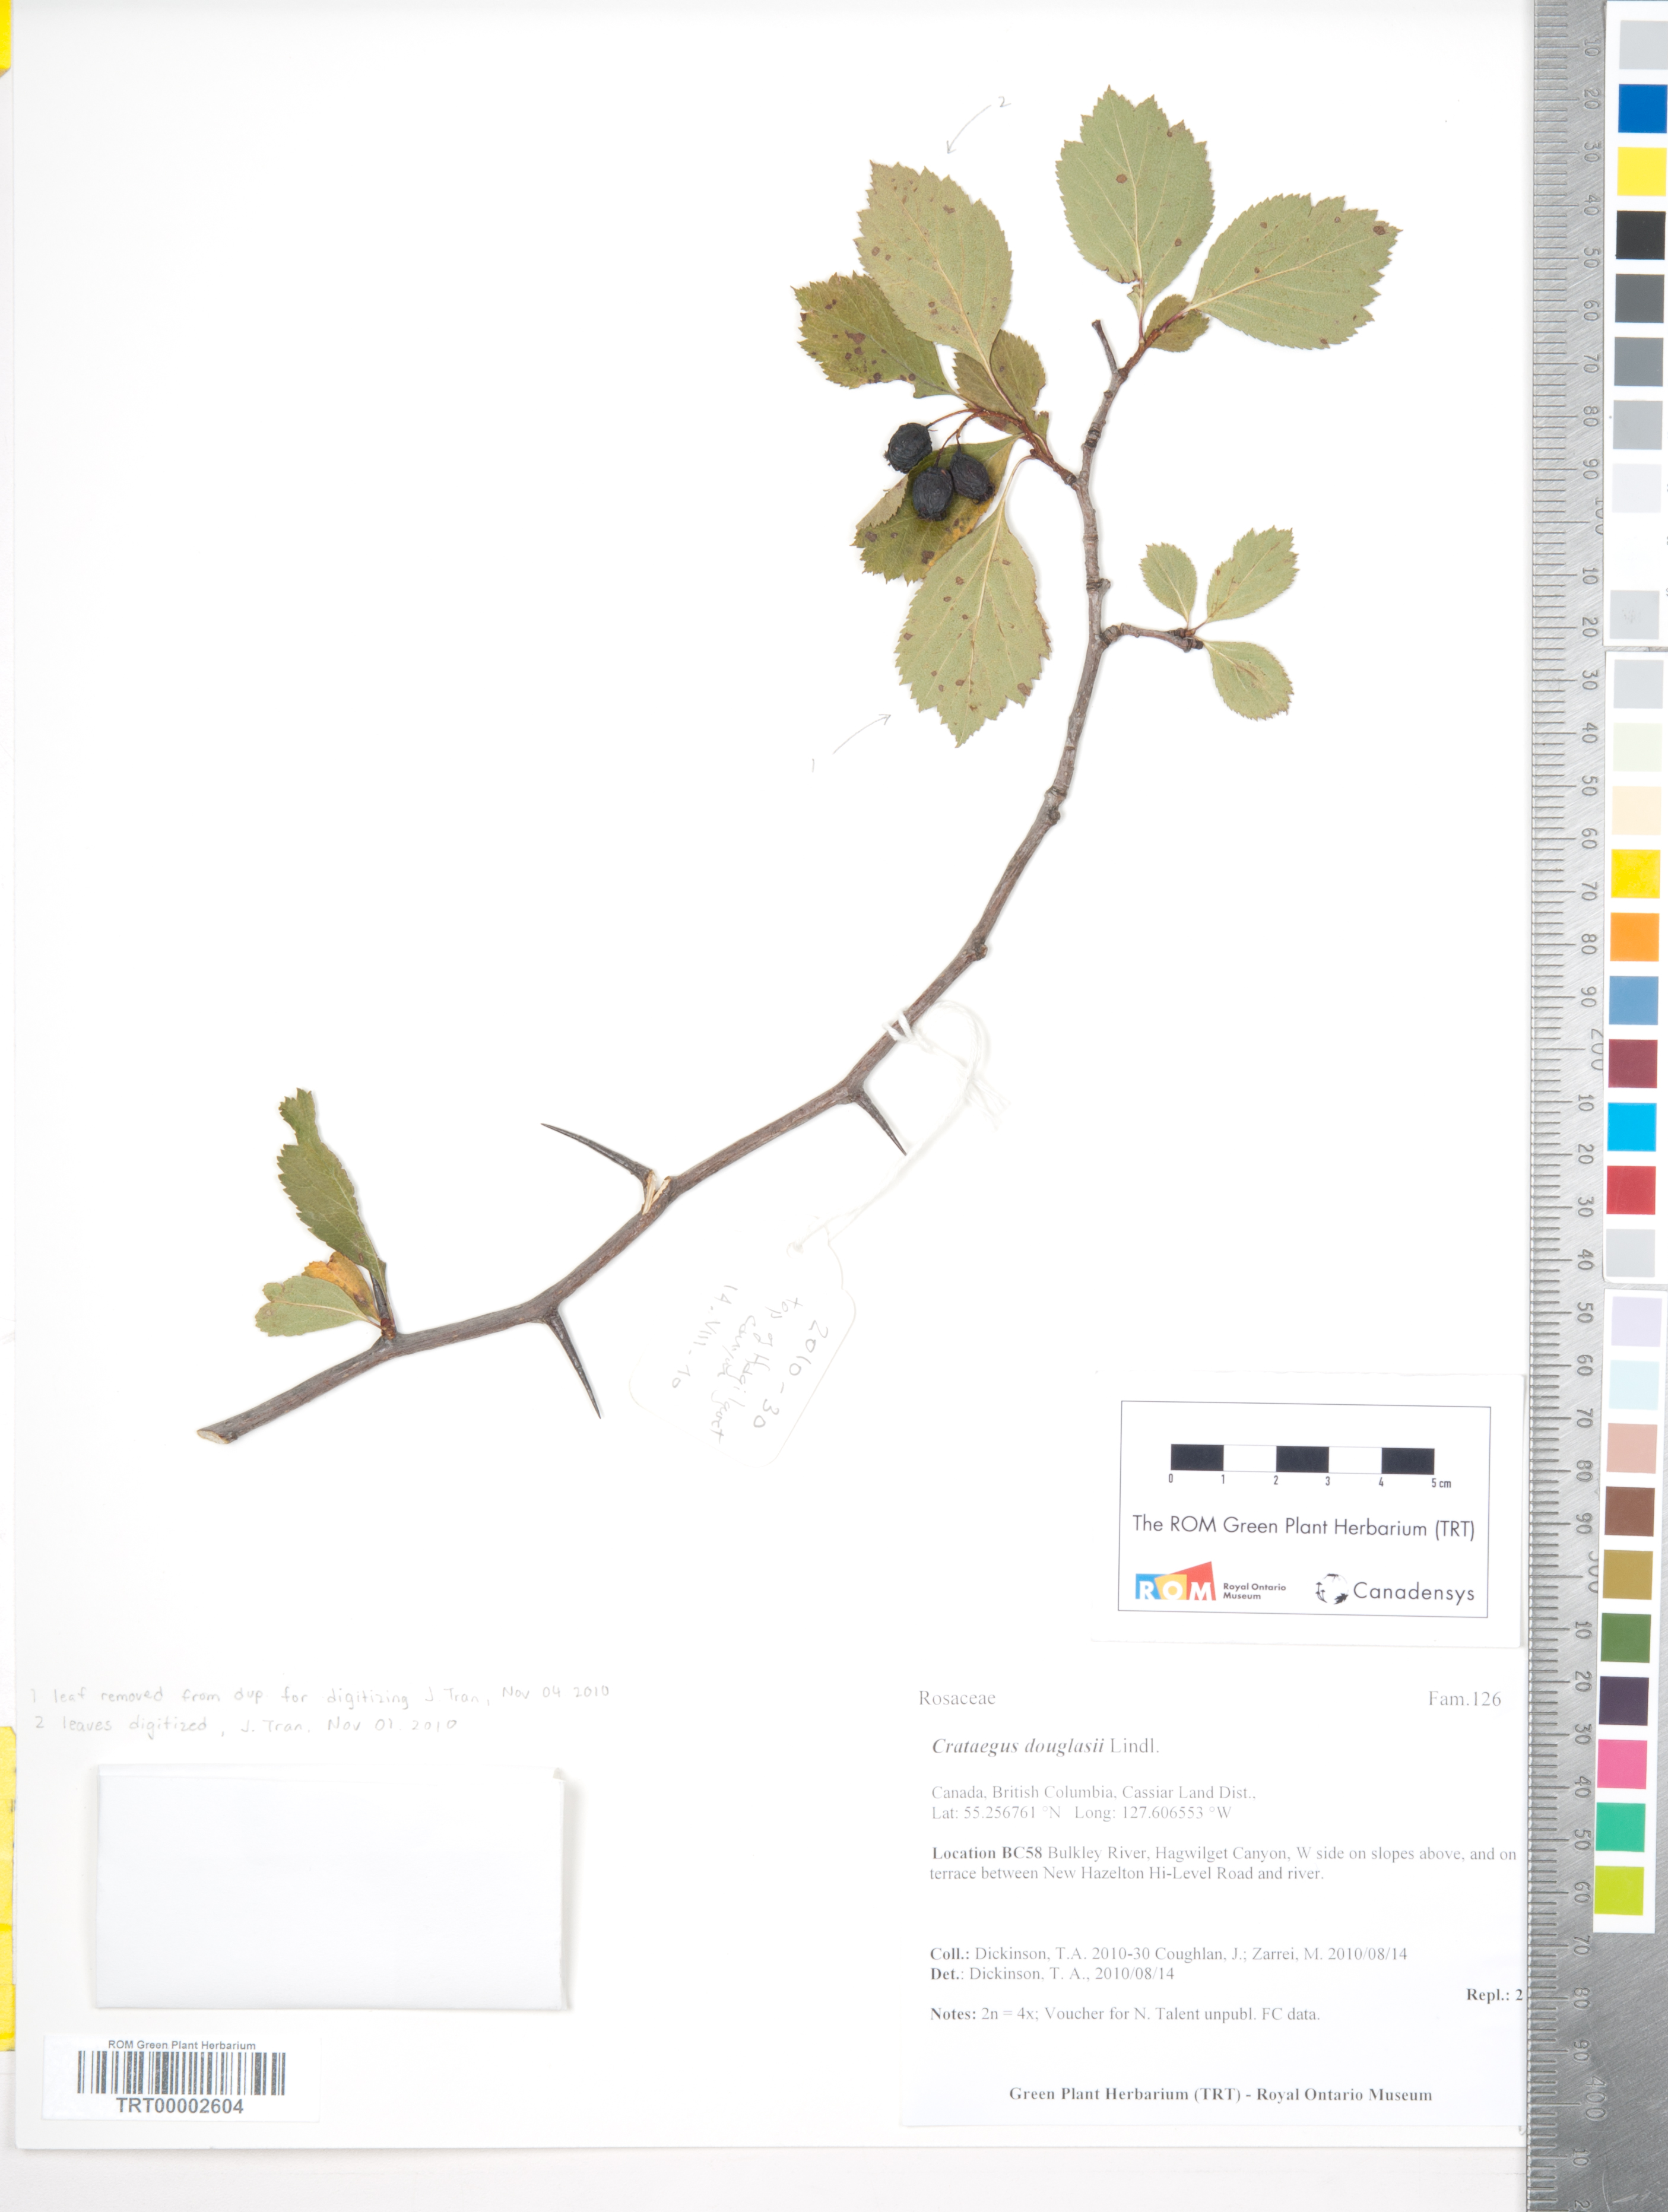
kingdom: Plantae
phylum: Tracheophyta
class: Magnoliopsida
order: Rosales
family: Rosaceae
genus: Crataegus
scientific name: Crataegus douglasii
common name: Black hawthorn
